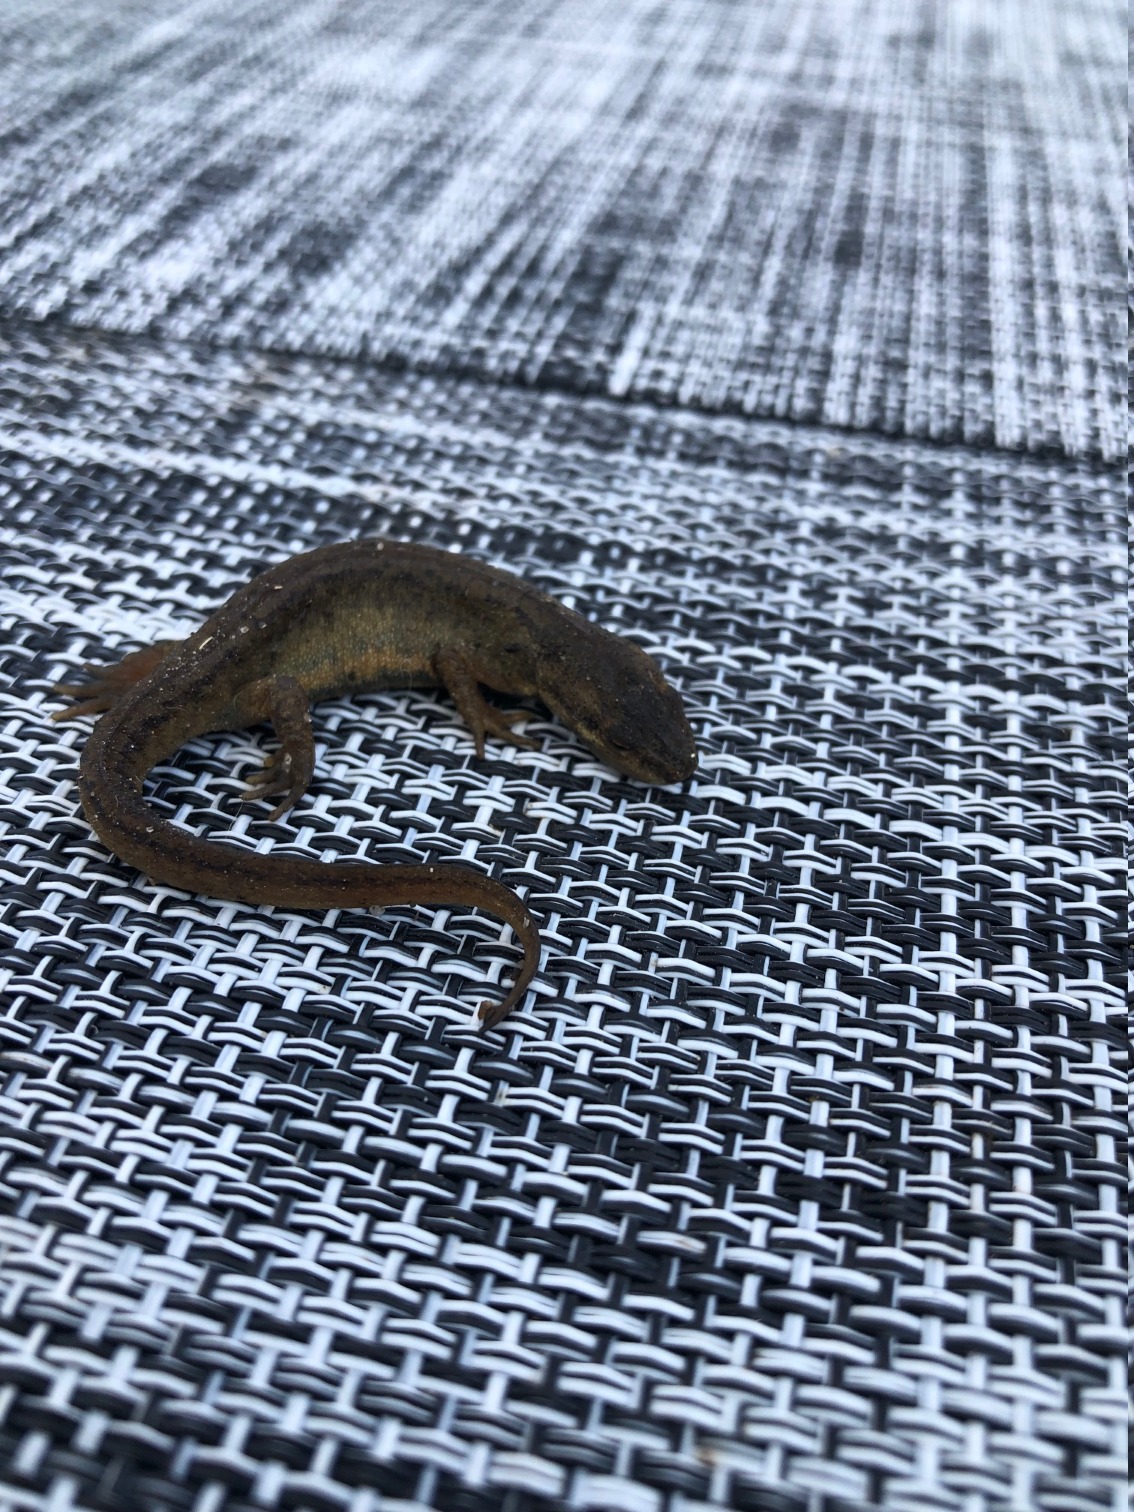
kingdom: Animalia
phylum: Chordata
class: Amphibia
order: Caudata
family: Salamandridae
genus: Lissotriton
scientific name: Lissotriton vulgaris
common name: Lille vandsalamander
